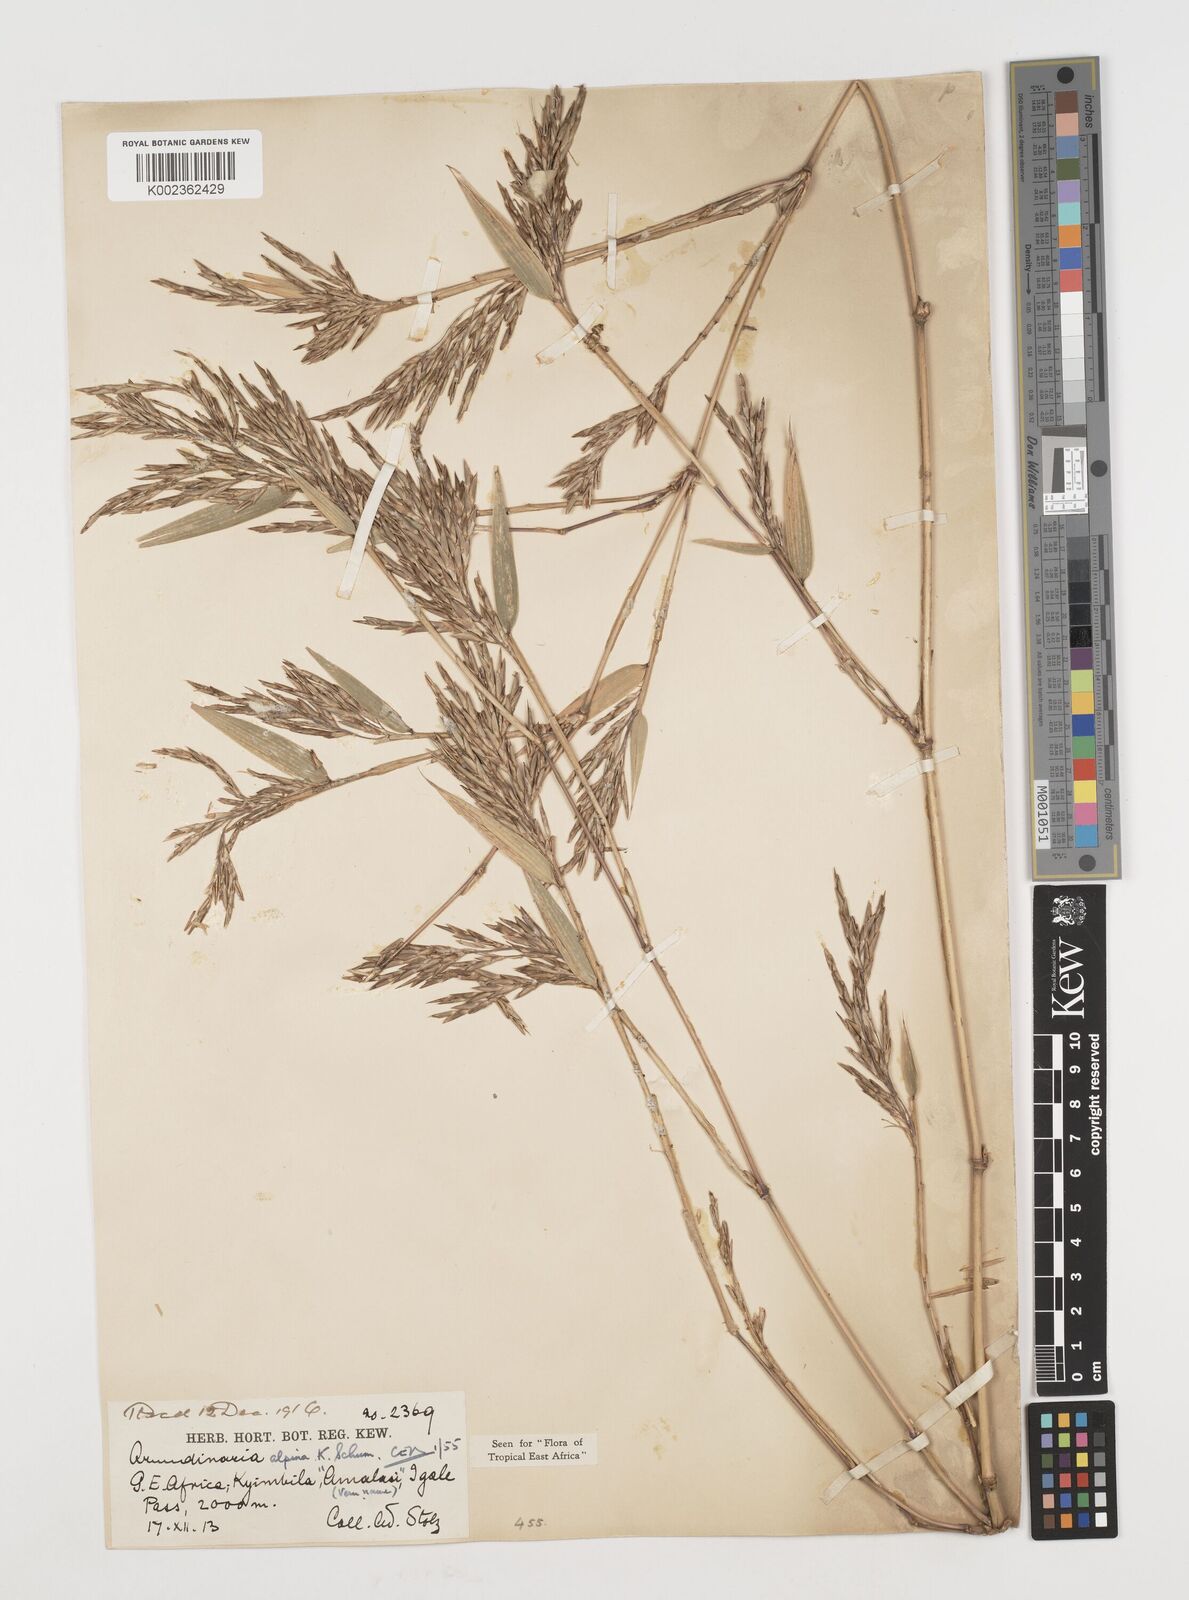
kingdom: Plantae
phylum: Tracheophyta
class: Liliopsida
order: Poales
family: Poaceae
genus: Oldeania
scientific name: Oldeania alpina
